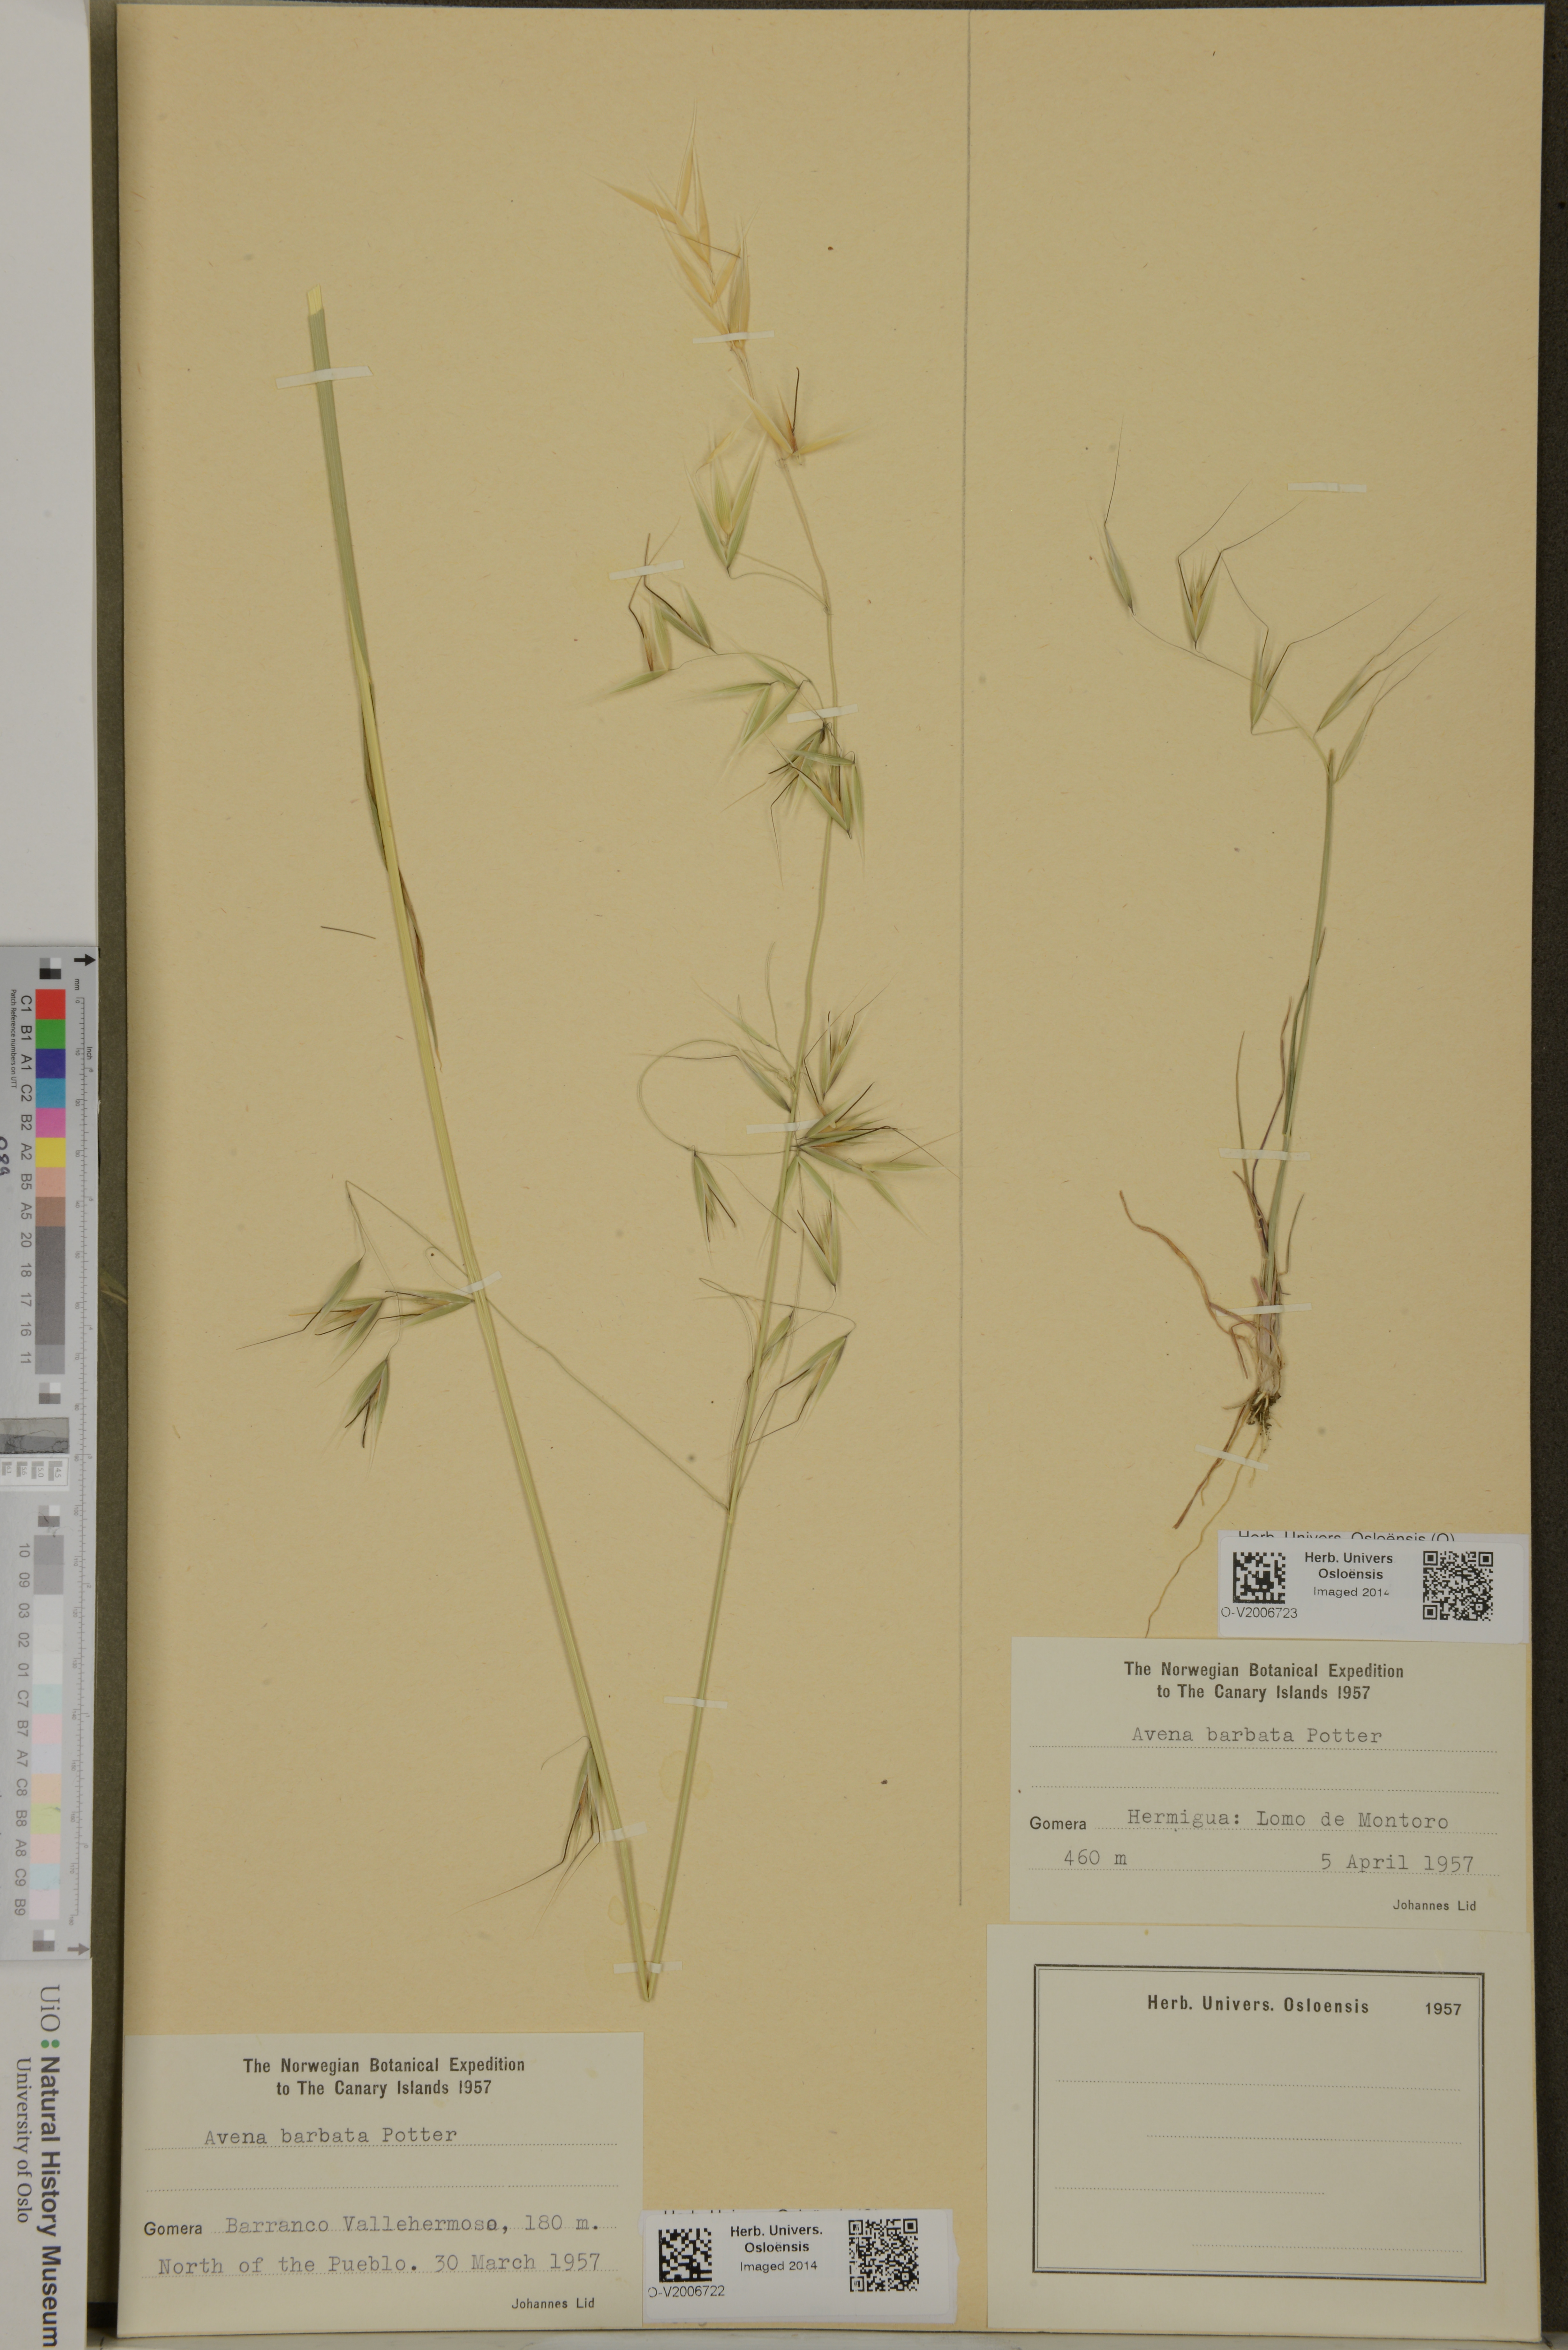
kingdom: Plantae
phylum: Tracheophyta
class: Liliopsida
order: Poales
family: Poaceae
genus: Avena
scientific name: Avena barbata
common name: Slender oat
